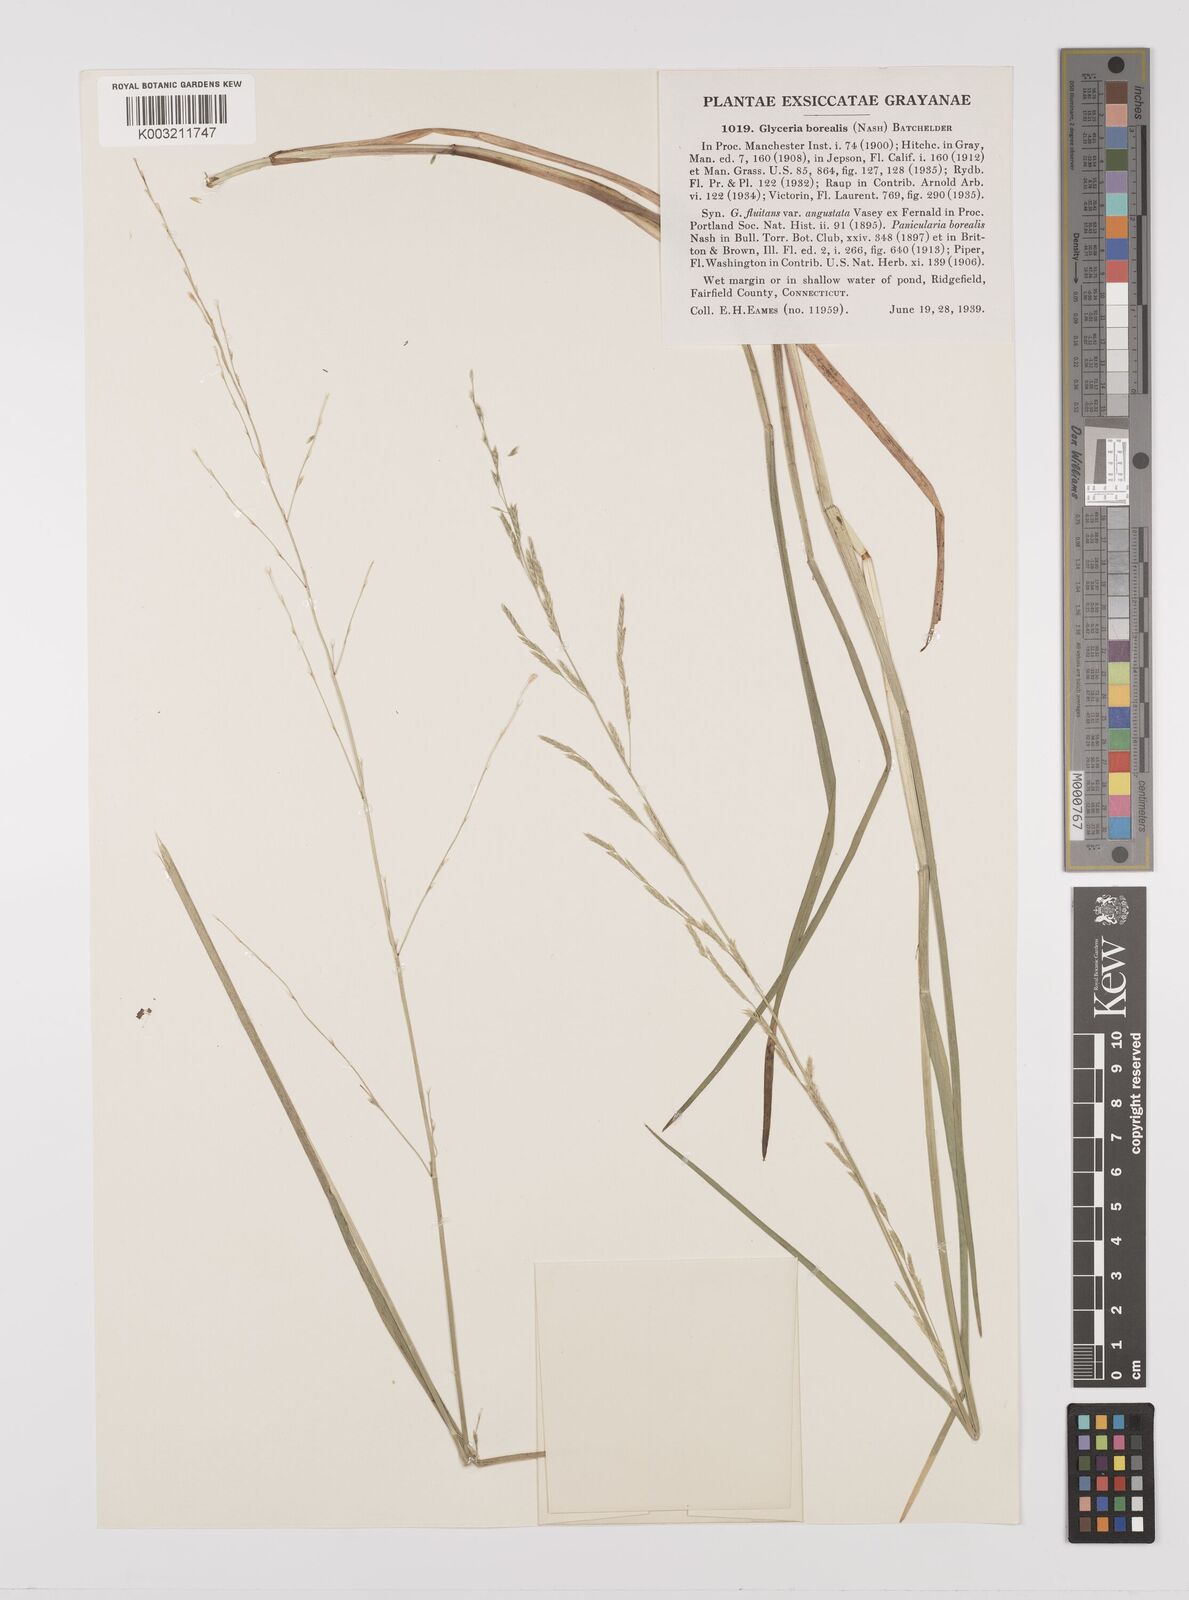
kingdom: Plantae
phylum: Tracheophyta
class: Liliopsida
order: Poales
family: Poaceae
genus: Glyceria
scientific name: Glyceria borealis
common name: Boreal glyceria
